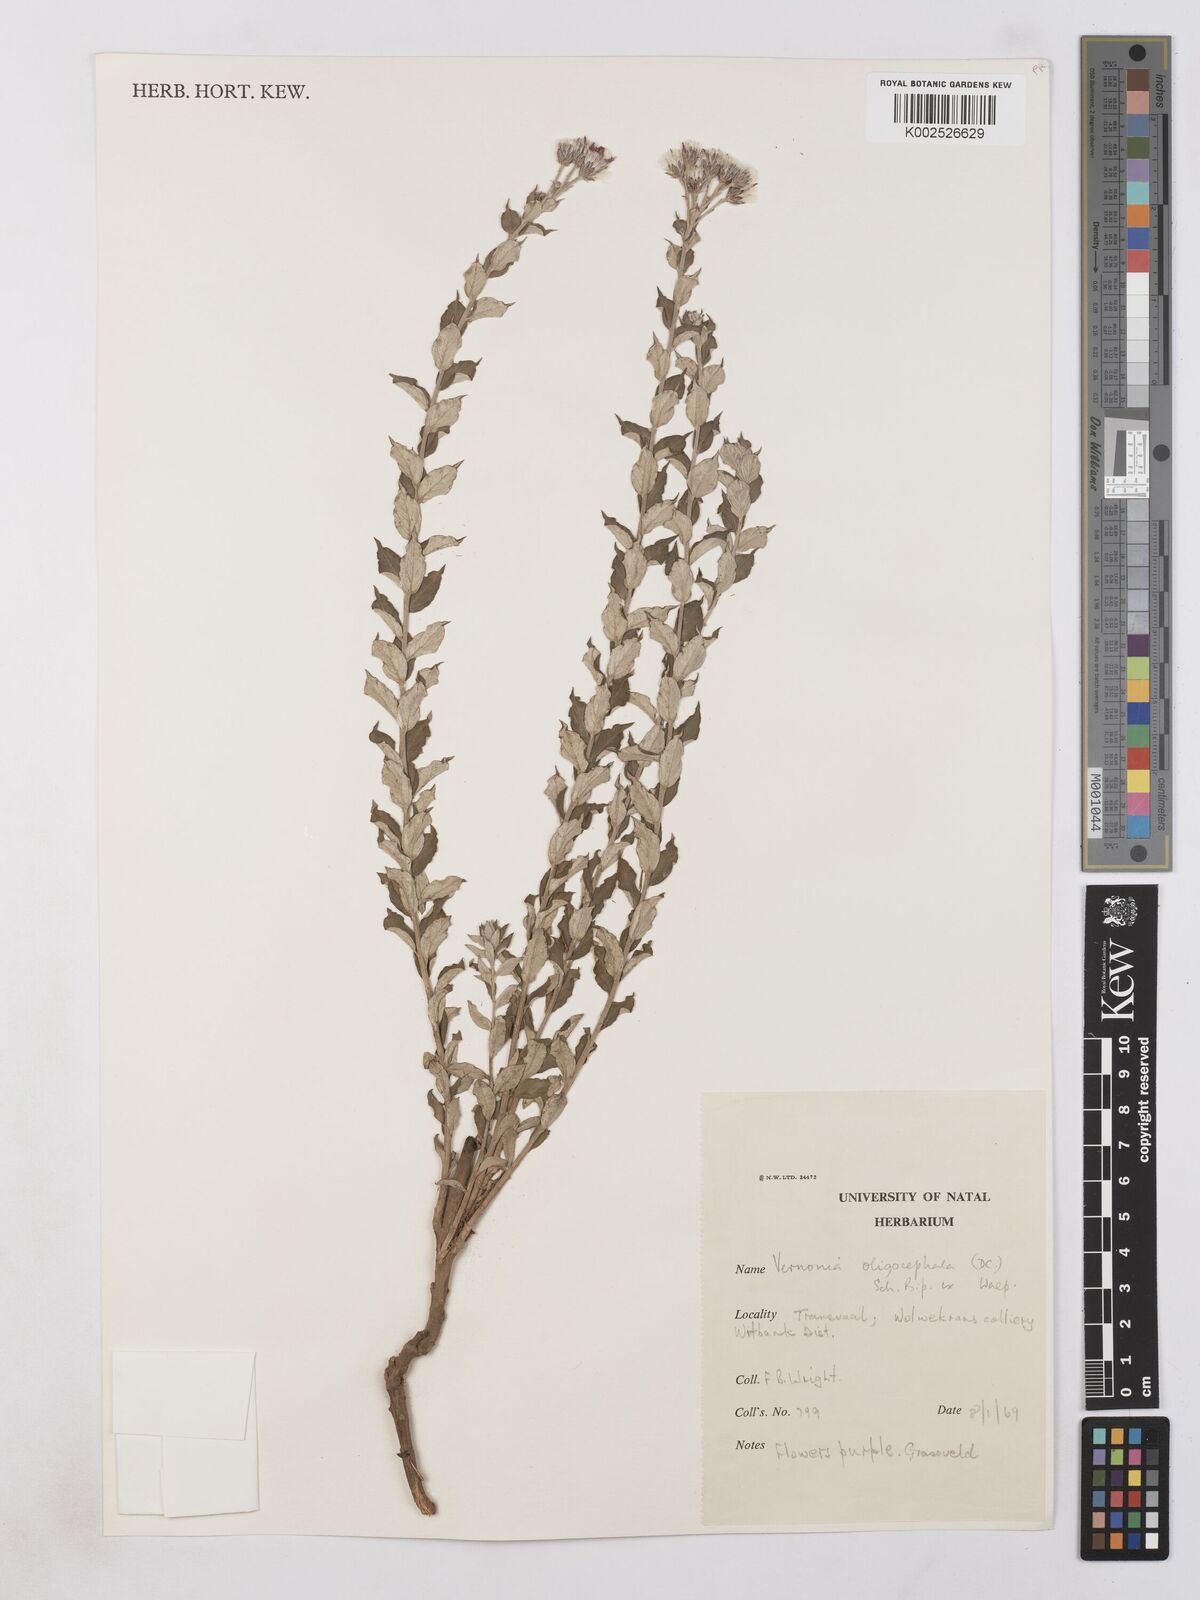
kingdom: Plantae
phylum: Tracheophyta
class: Magnoliopsida
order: Asterales
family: Asteraceae
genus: Hilliardiella
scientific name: Hilliardiella oligocephala
